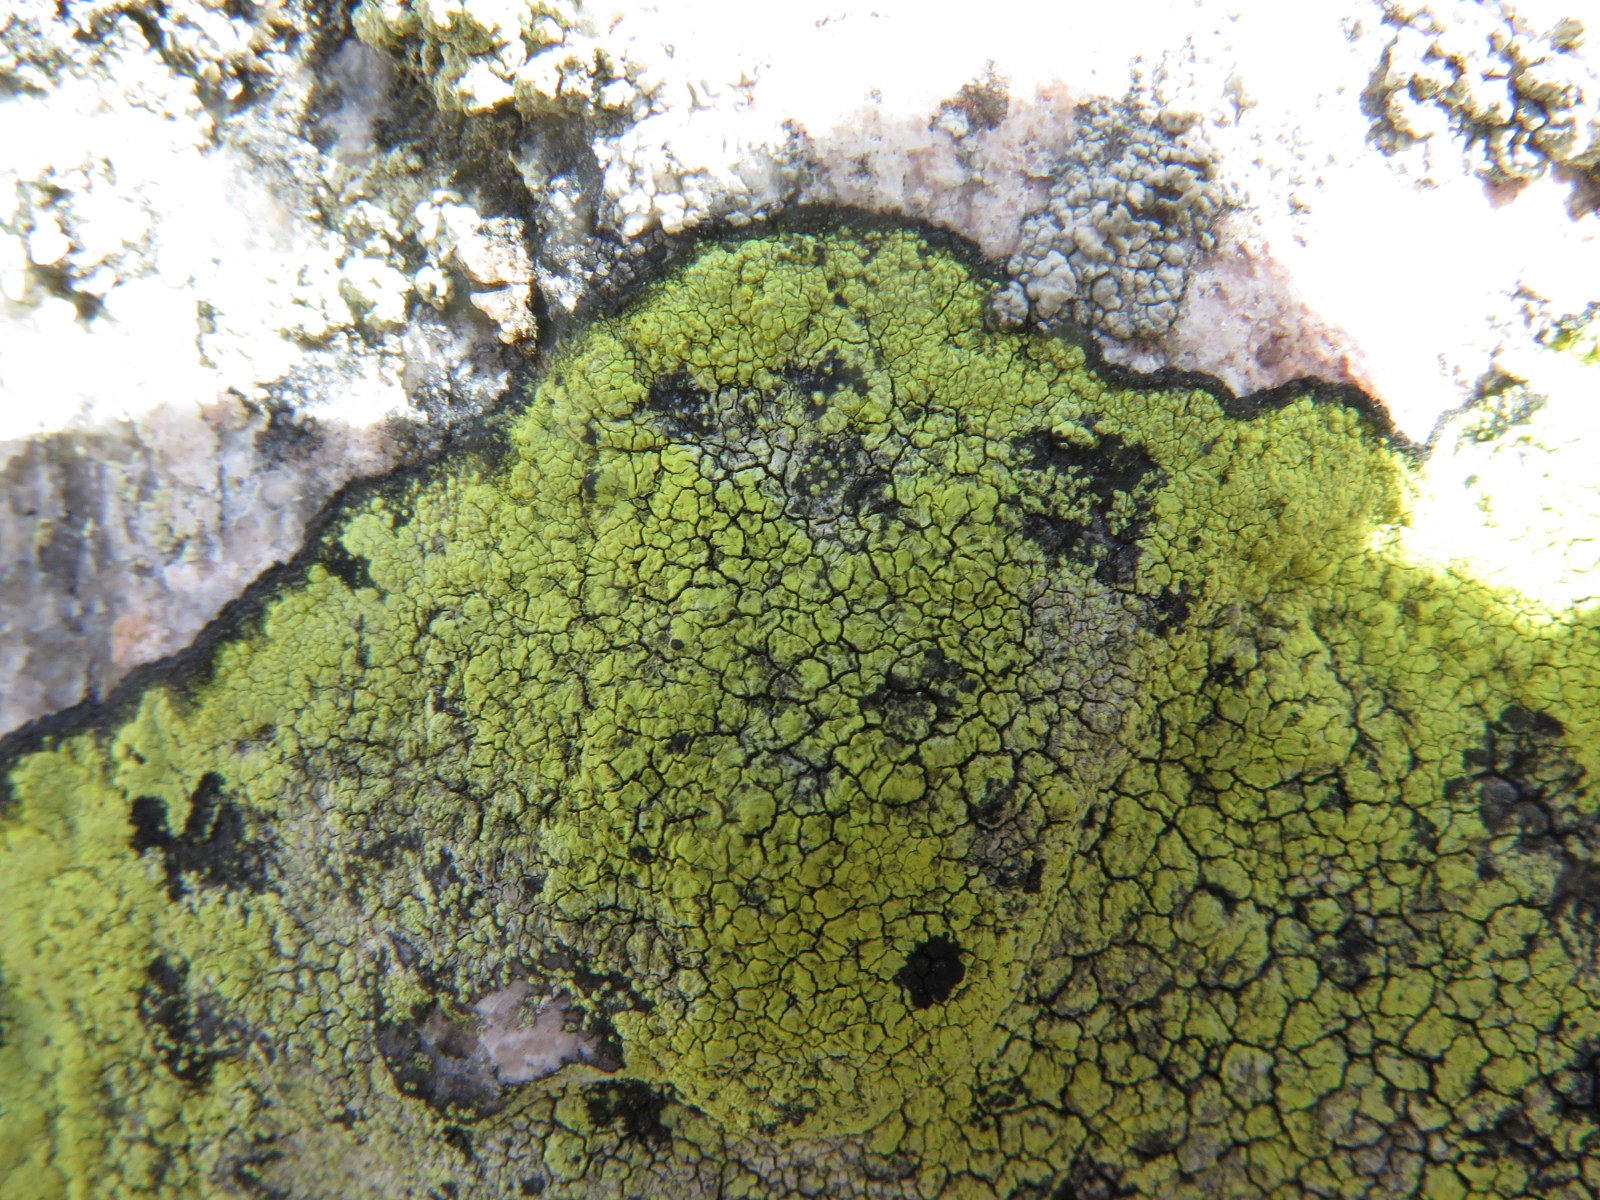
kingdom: Fungi
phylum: Ascomycota
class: Lecanoromycetes
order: Rhizocarpales
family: Rhizocarpaceae
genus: Rhizocarpon
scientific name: Rhizocarpon geographicum
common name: gulgrøn landkortlav
